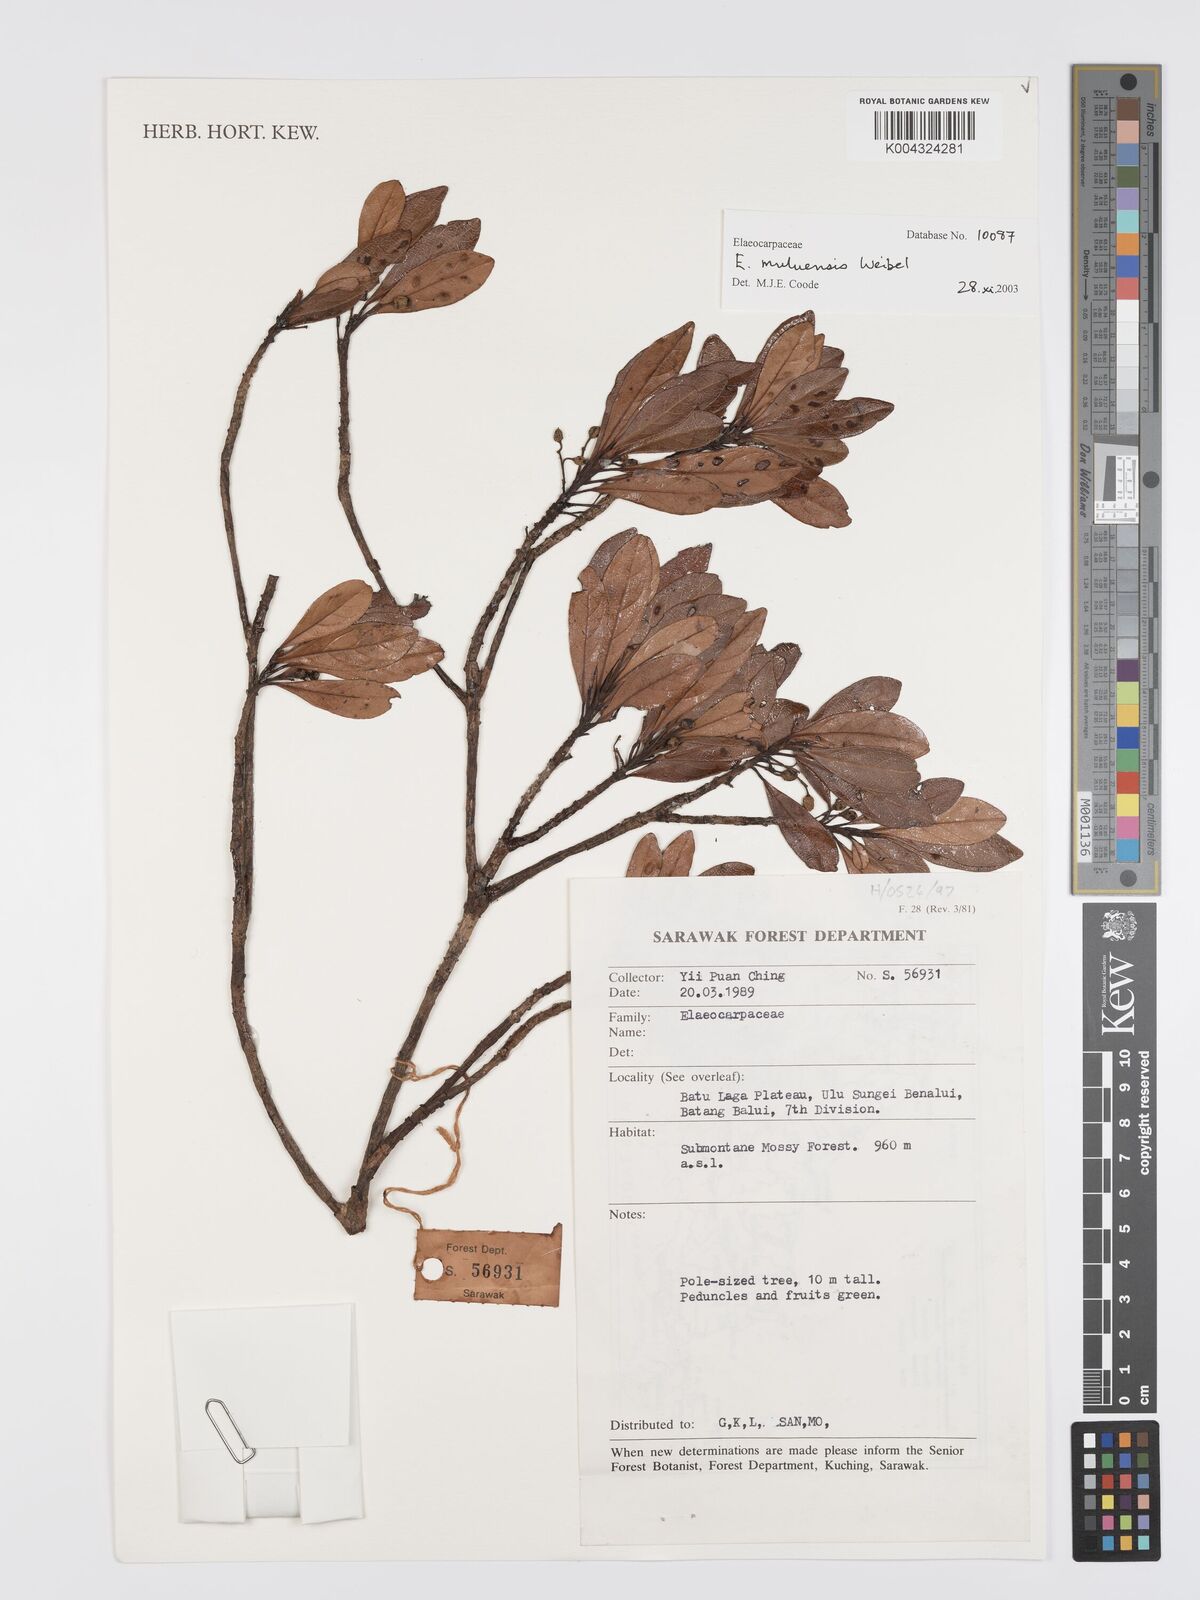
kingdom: Plantae
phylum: Tracheophyta
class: Magnoliopsida
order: Oxalidales
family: Elaeocarpaceae
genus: Elaeocarpus
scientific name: Elaeocarpus muluensis
